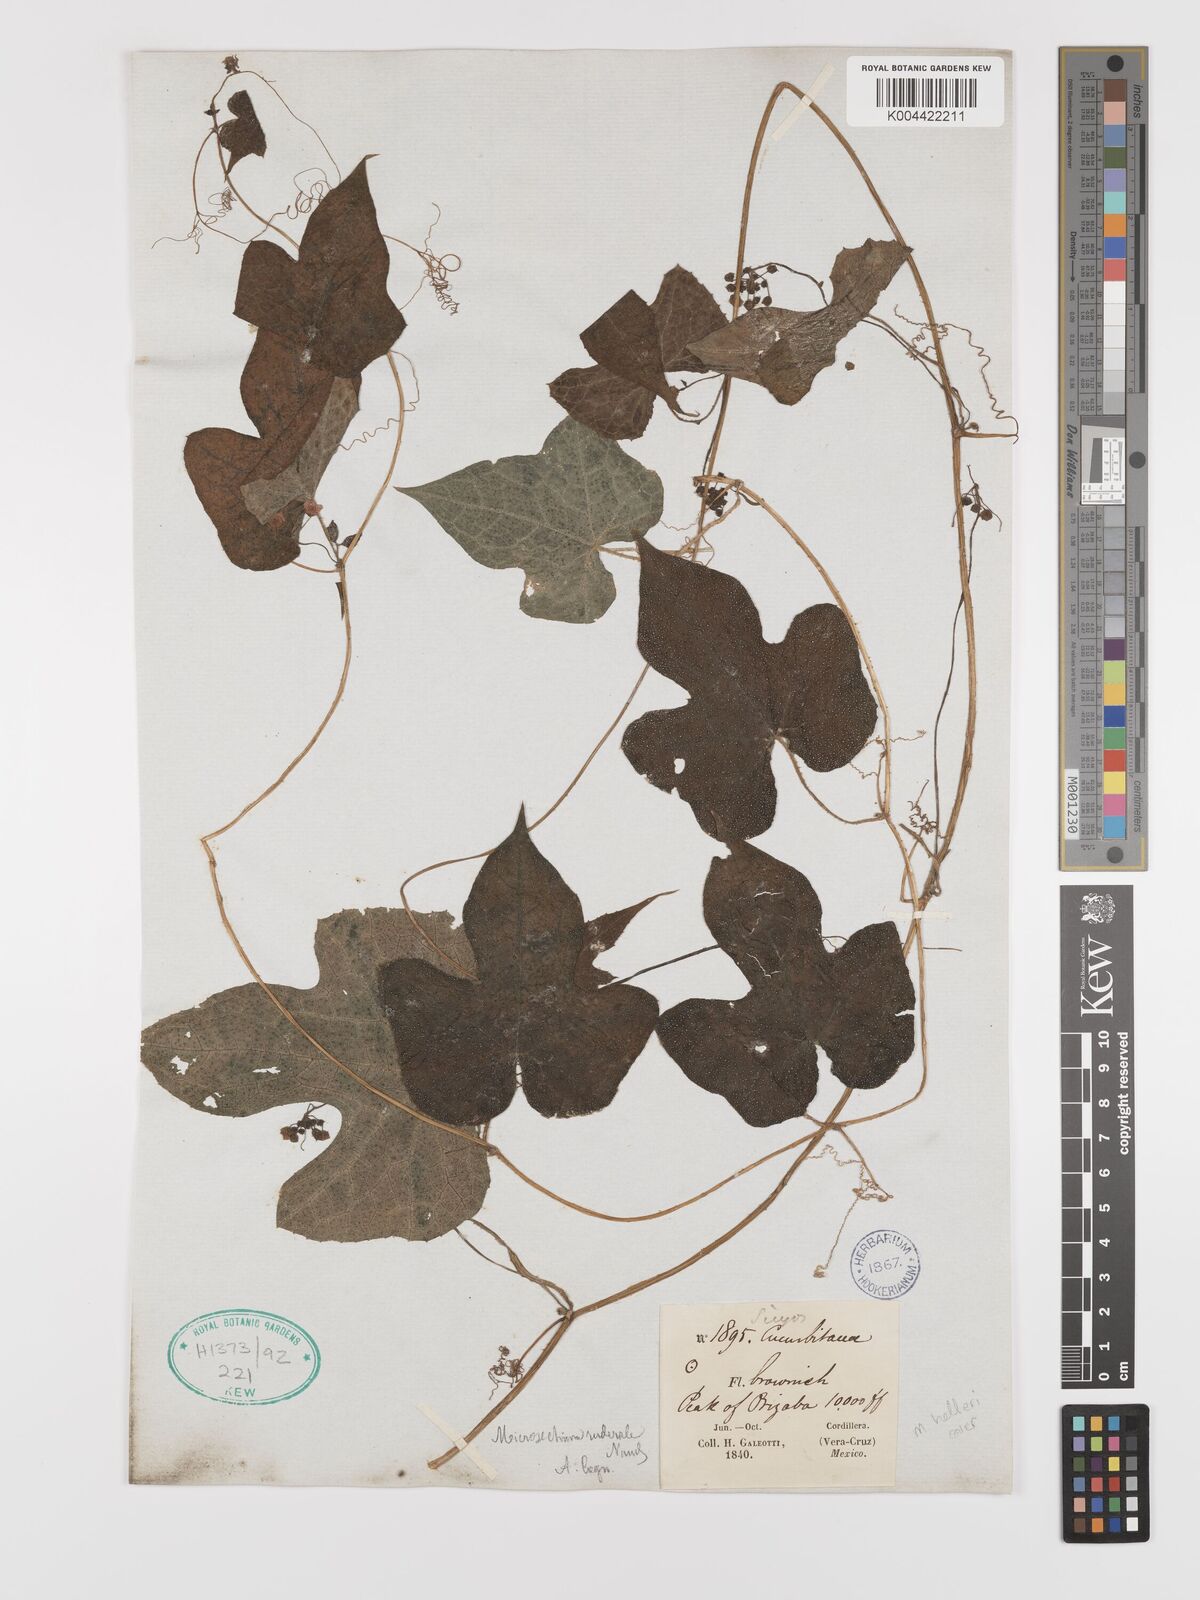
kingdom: Plantae
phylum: Tracheophyta
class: Magnoliopsida
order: Cucurbitales
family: Cucurbitaceae
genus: Microsechium
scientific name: Microsechium palmatum
